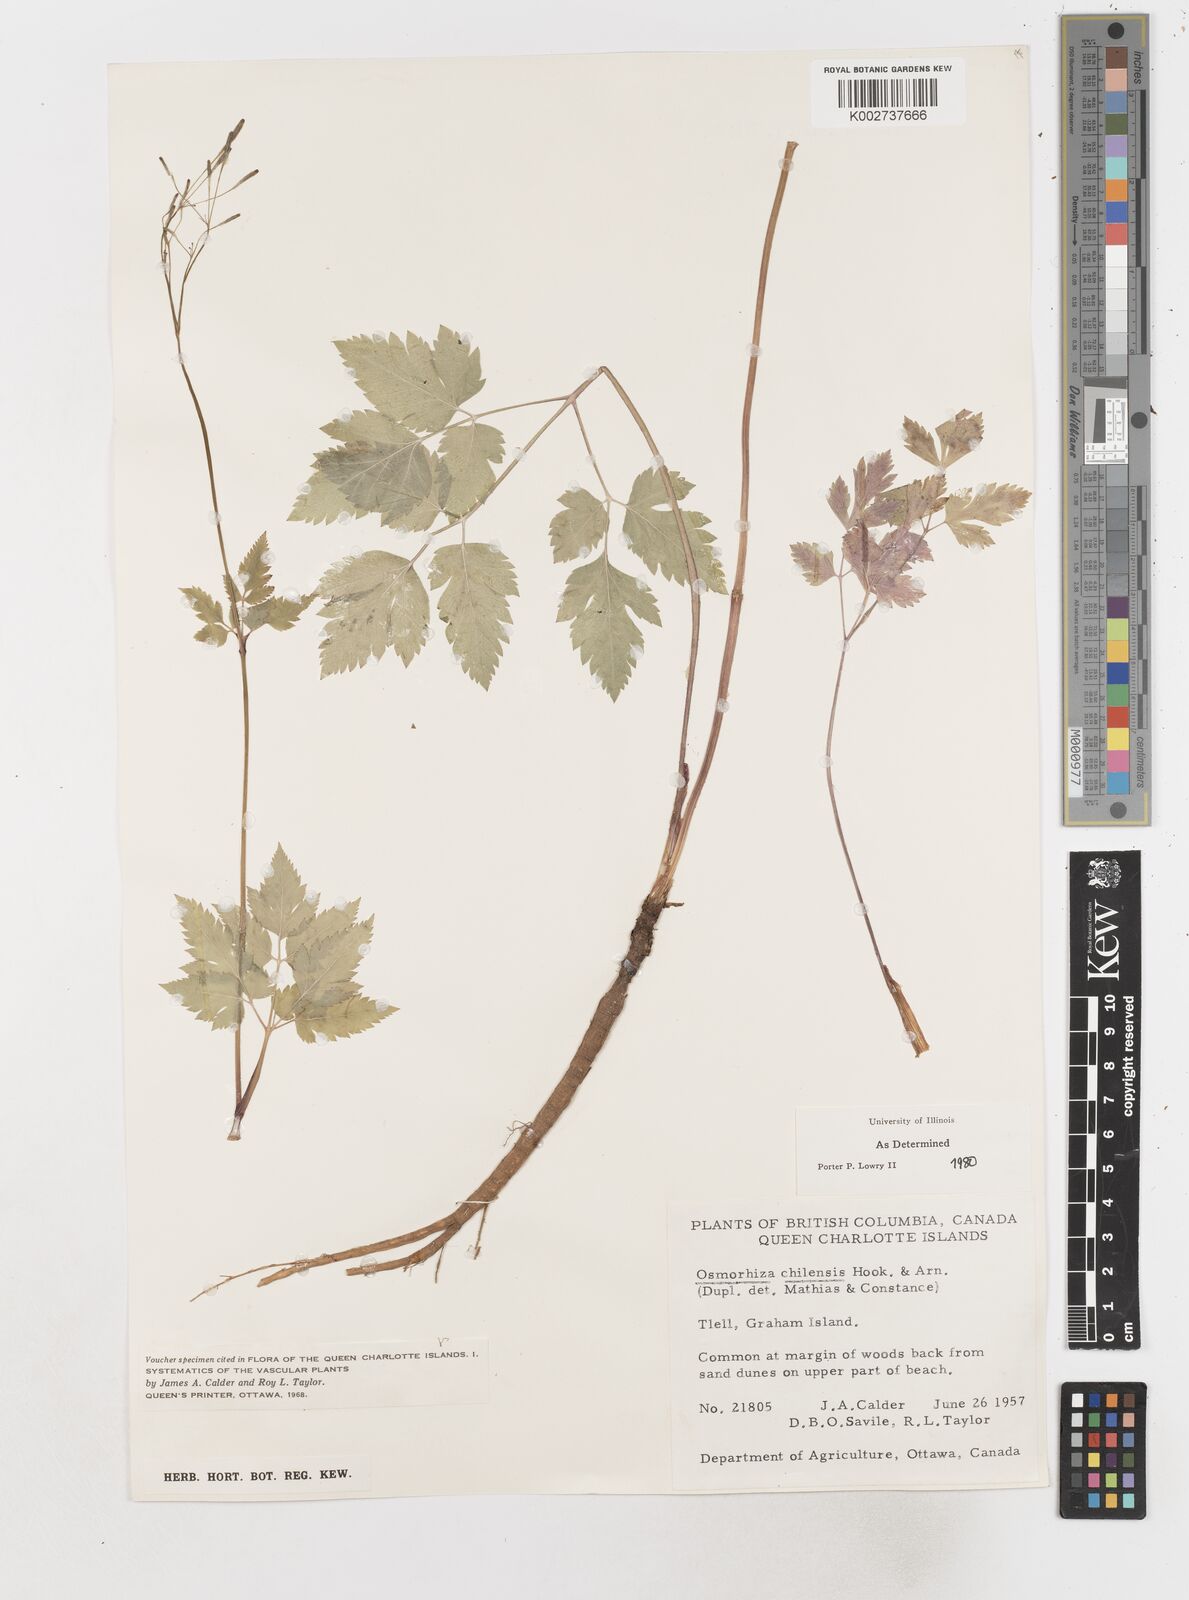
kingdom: Plantae
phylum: Tracheophyta
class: Magnoliopsida
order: Apiales
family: Apiaceae
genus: Osmorhiza
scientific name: Osmorhiza berteroi
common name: Mountain sweet cicely
